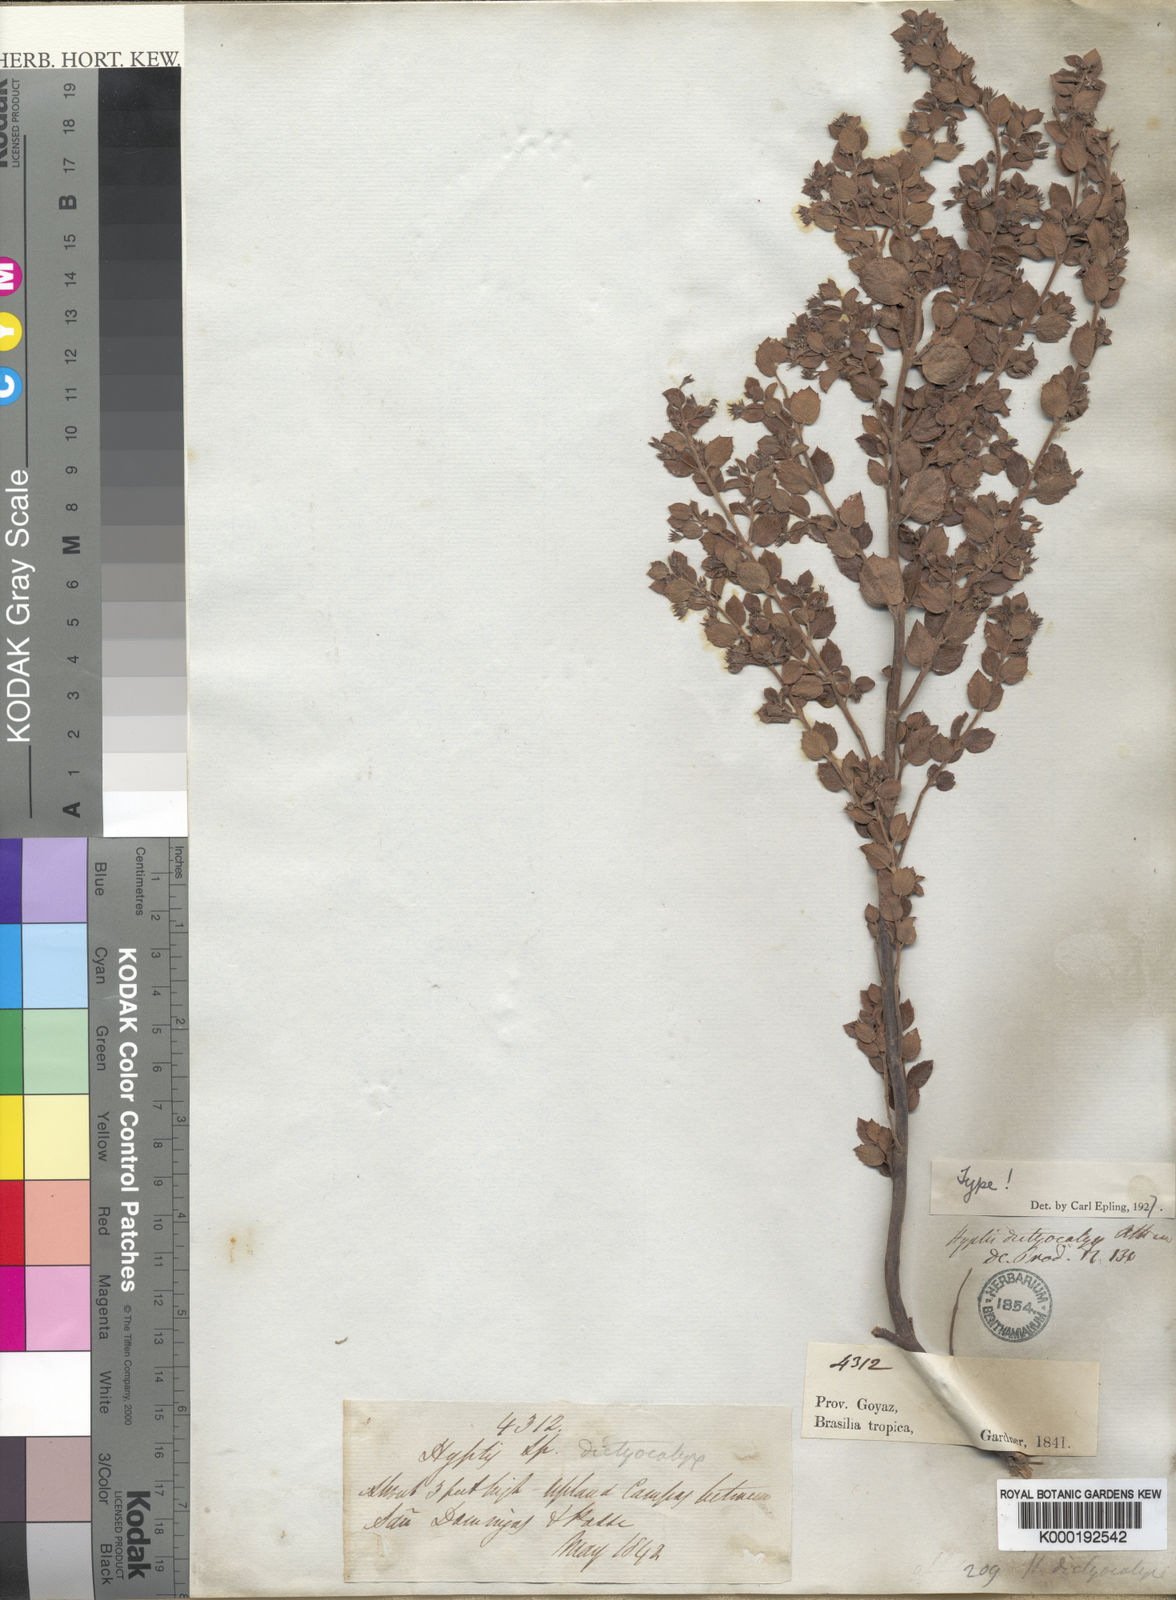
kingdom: Plantae
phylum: Tracheophyta
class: Magnoliopsida
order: Lamiales
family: Lamiaceae
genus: Hyptidendron
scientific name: Hyptidendron dictiocalyx
